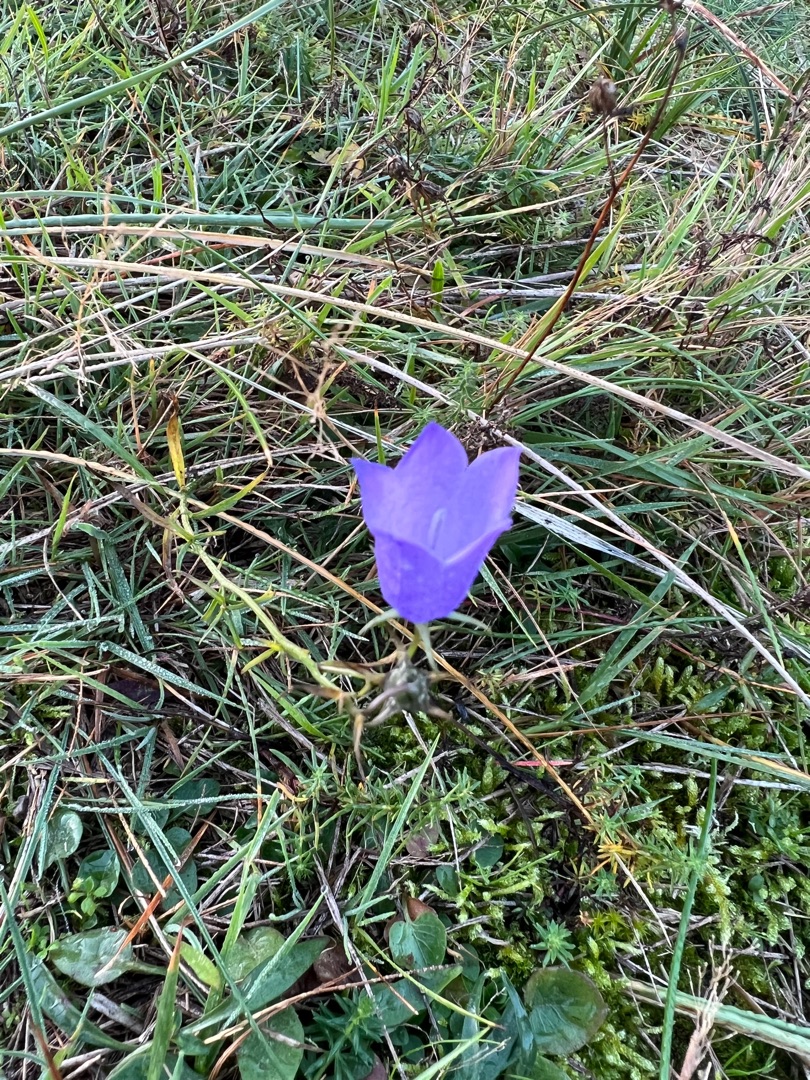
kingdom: Plantae
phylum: Tracheophyta
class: Magnoliopsida
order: Asterales
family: Campanulaceae
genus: Campanula
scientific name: Campanula rotundifolia
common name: Liden klokke
